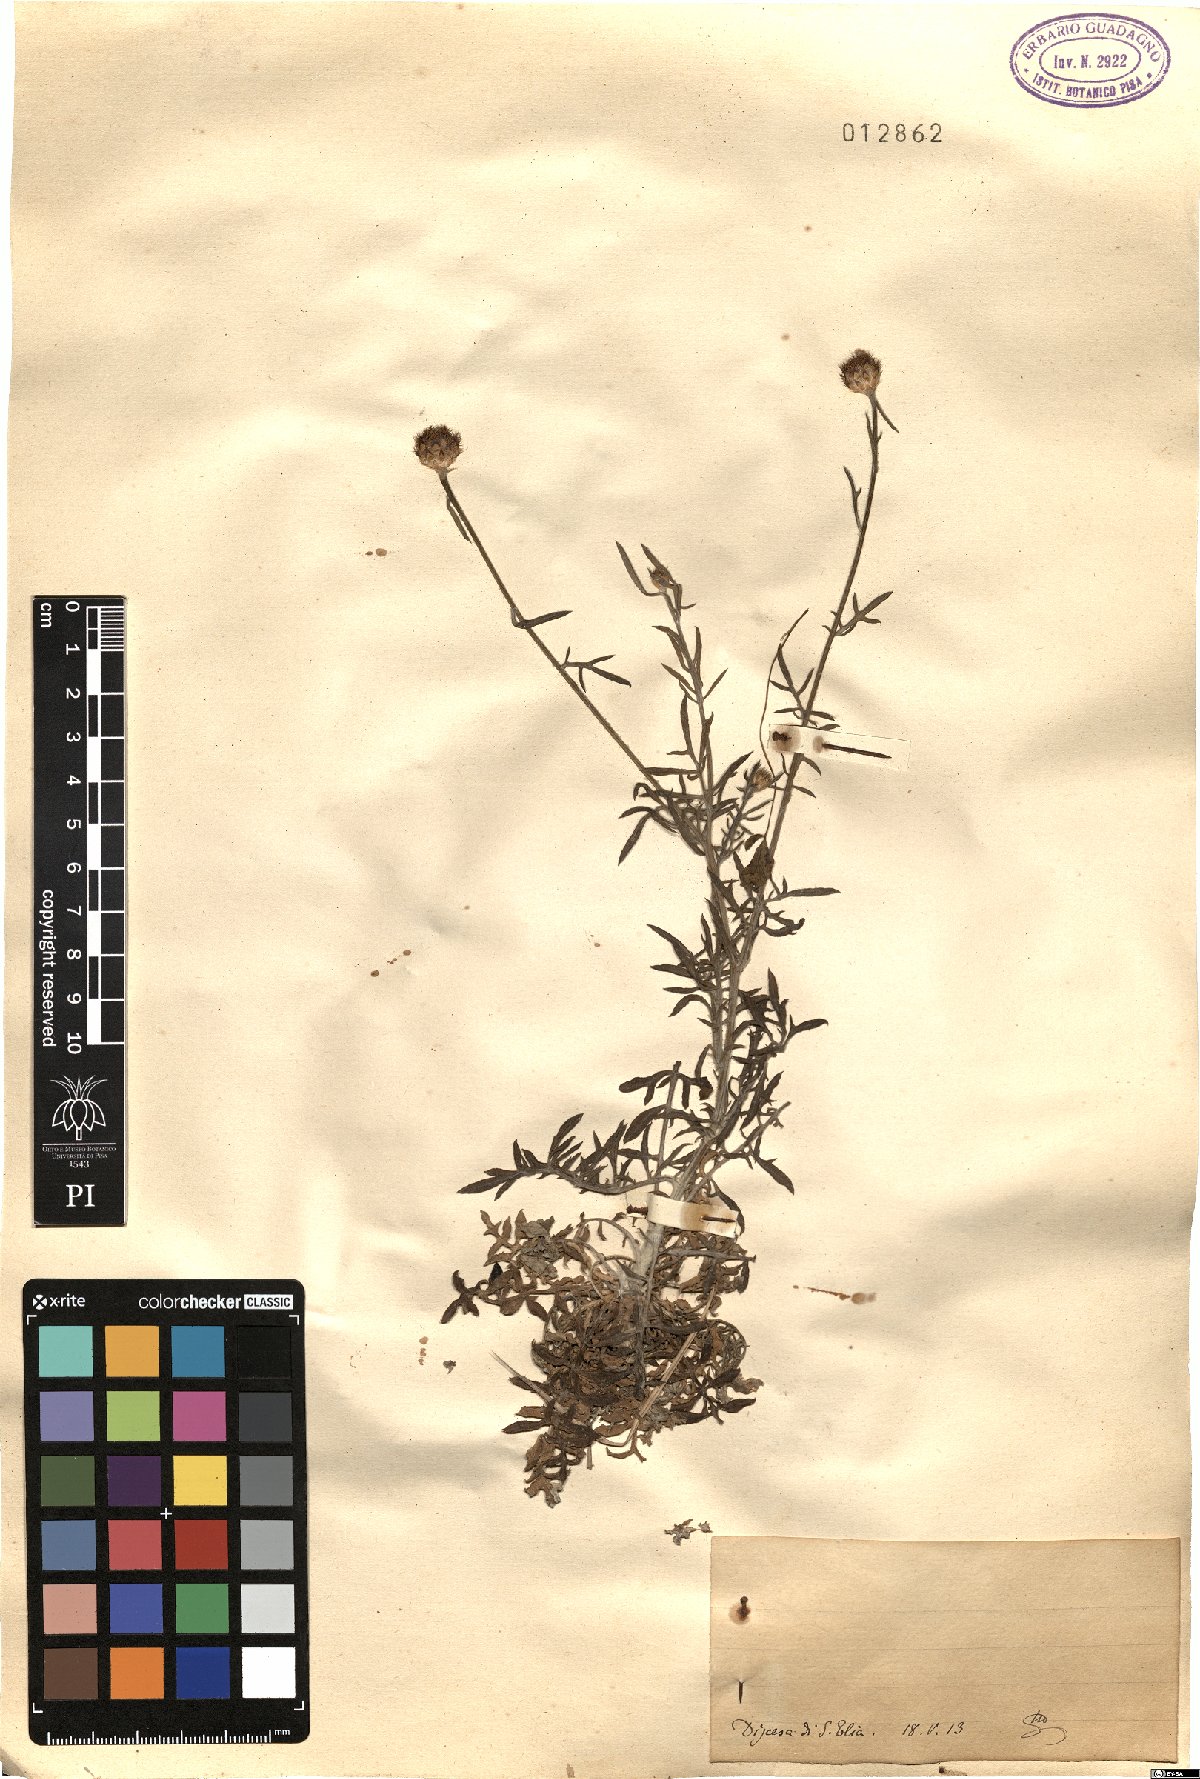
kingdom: Plantae
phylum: Tracheophyta
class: Magnoliopsida
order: Asterales
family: Asteraceae
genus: Centaurea
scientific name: Centaurea
